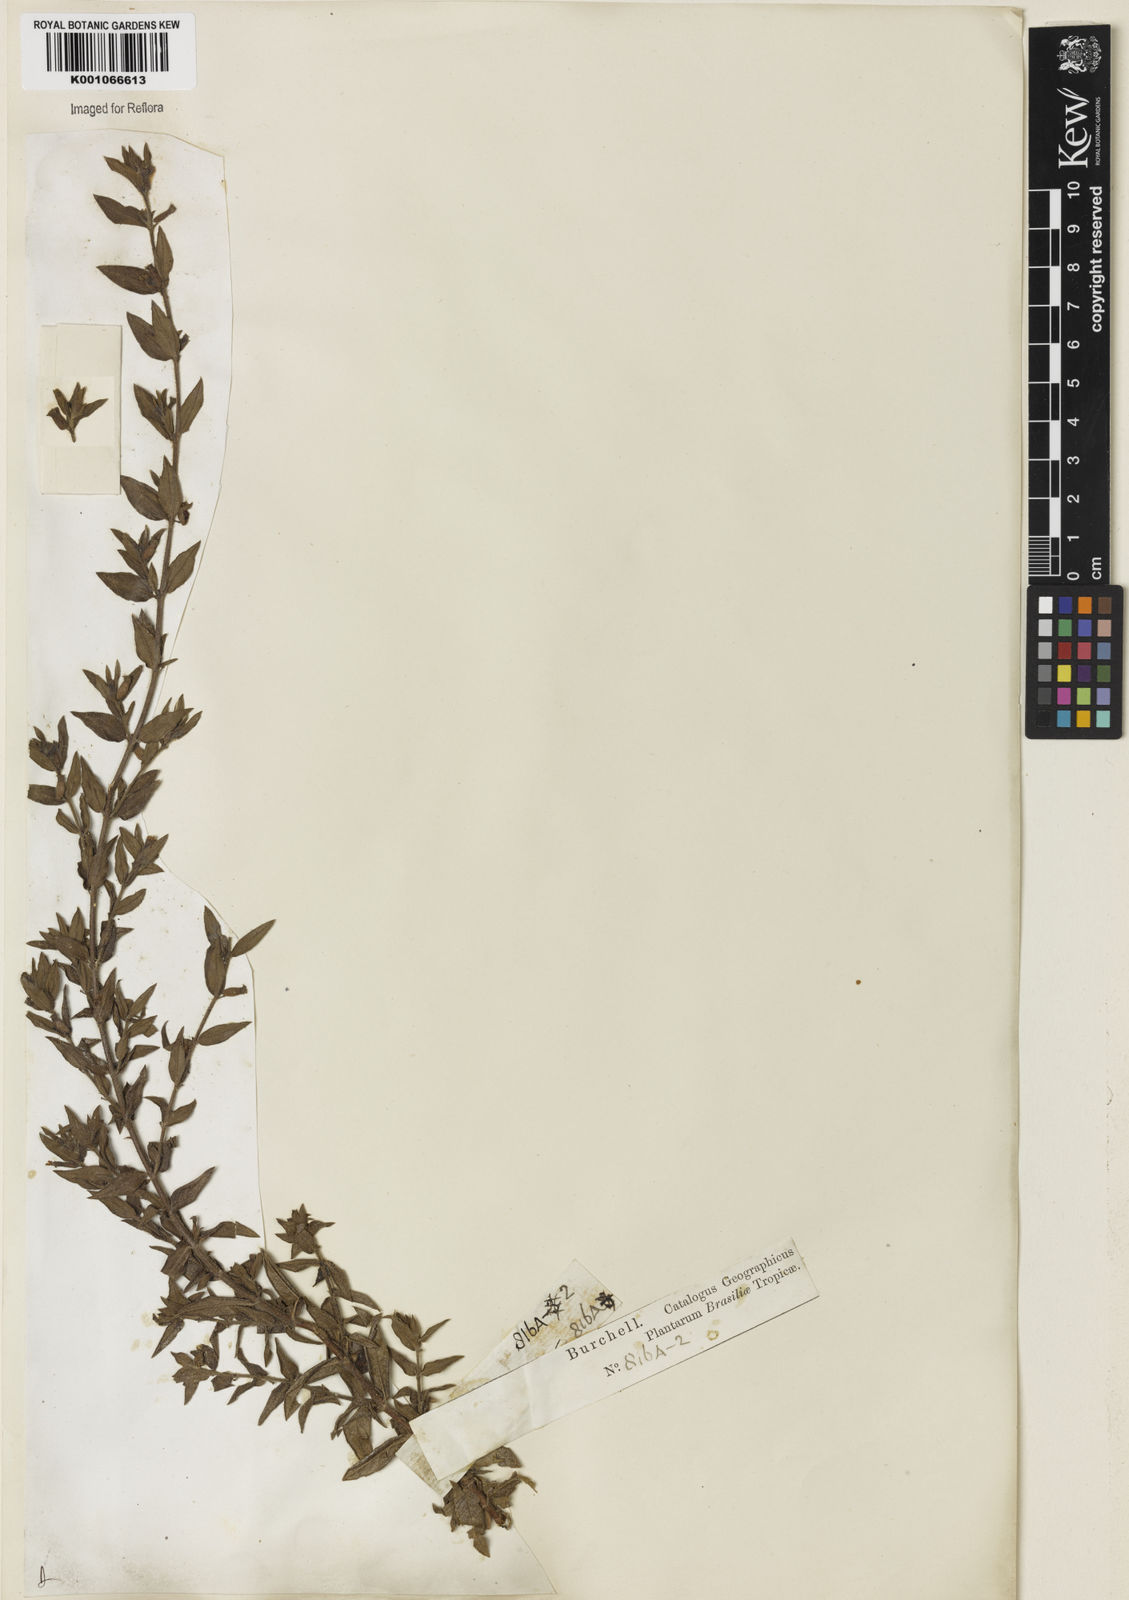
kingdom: Plantae
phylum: Tracheophyta
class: Magnoliopsida
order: Myrtales
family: Lythraceae
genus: Cuphea
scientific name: Cuphea antisyphilitica
